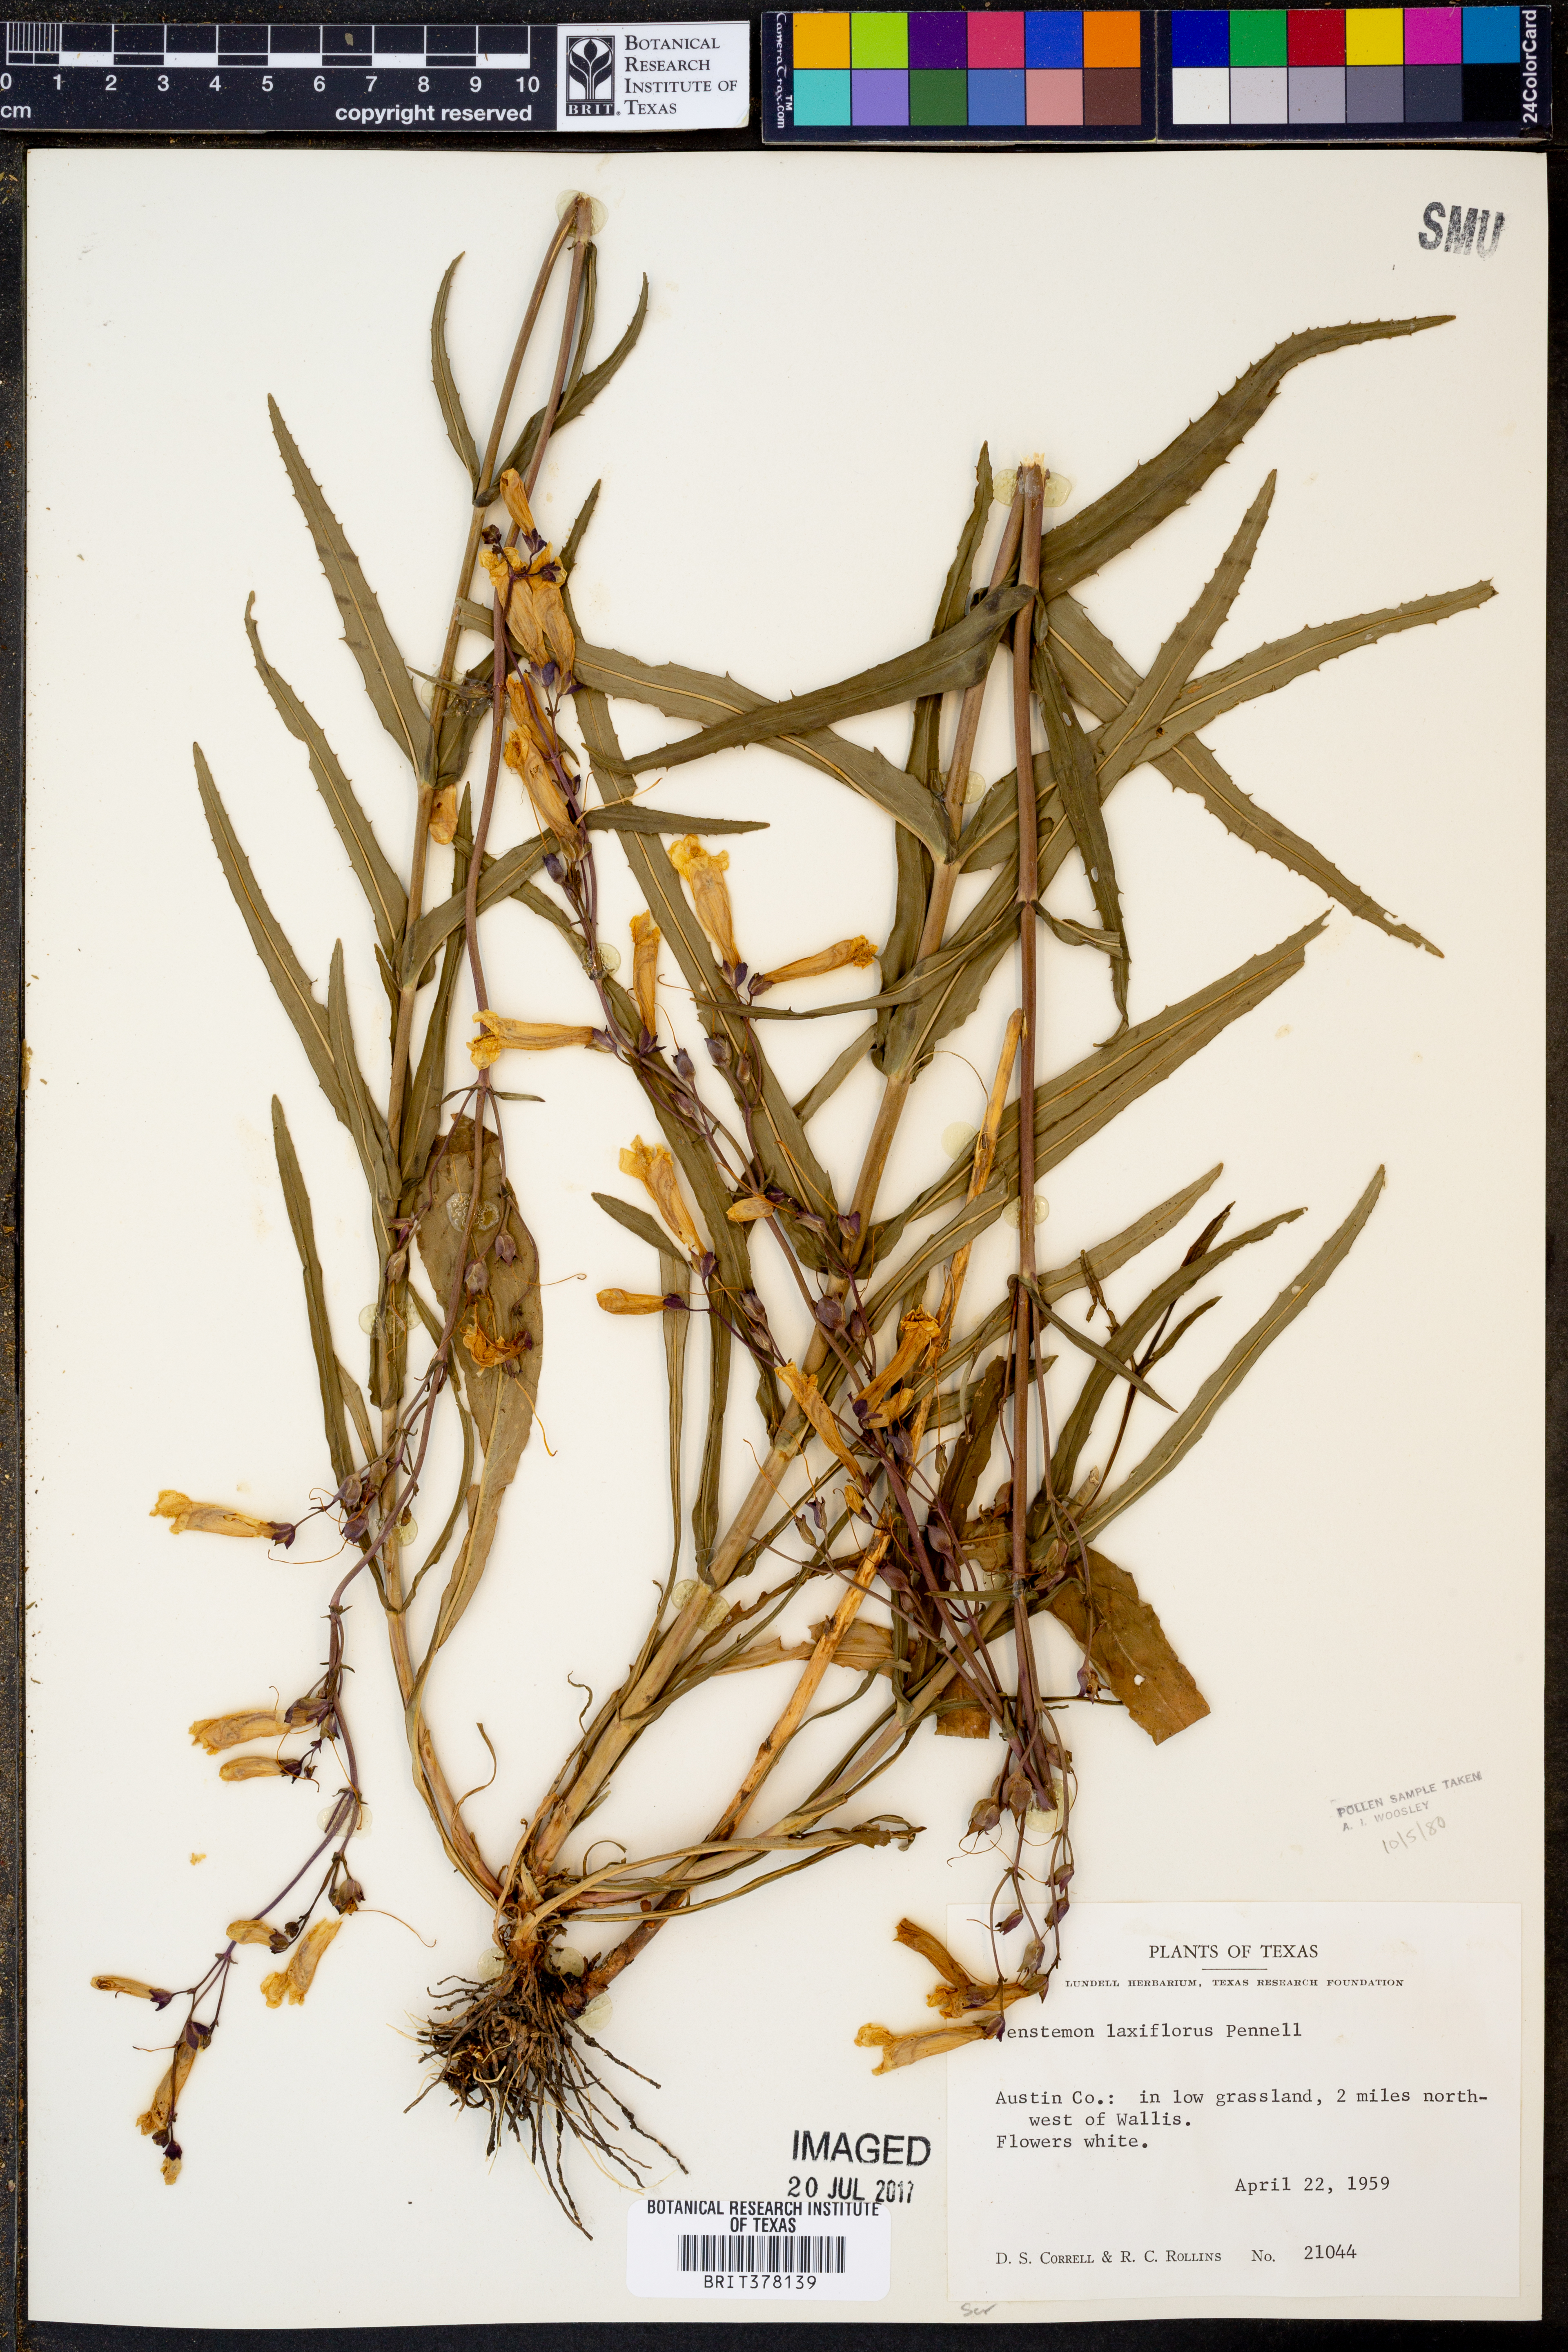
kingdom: Plantae
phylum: Tracheophyta
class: Magnoliopsida
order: Lamiales
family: Plantaginaceae
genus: Penstemon
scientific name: Penstemon laxiflorus
